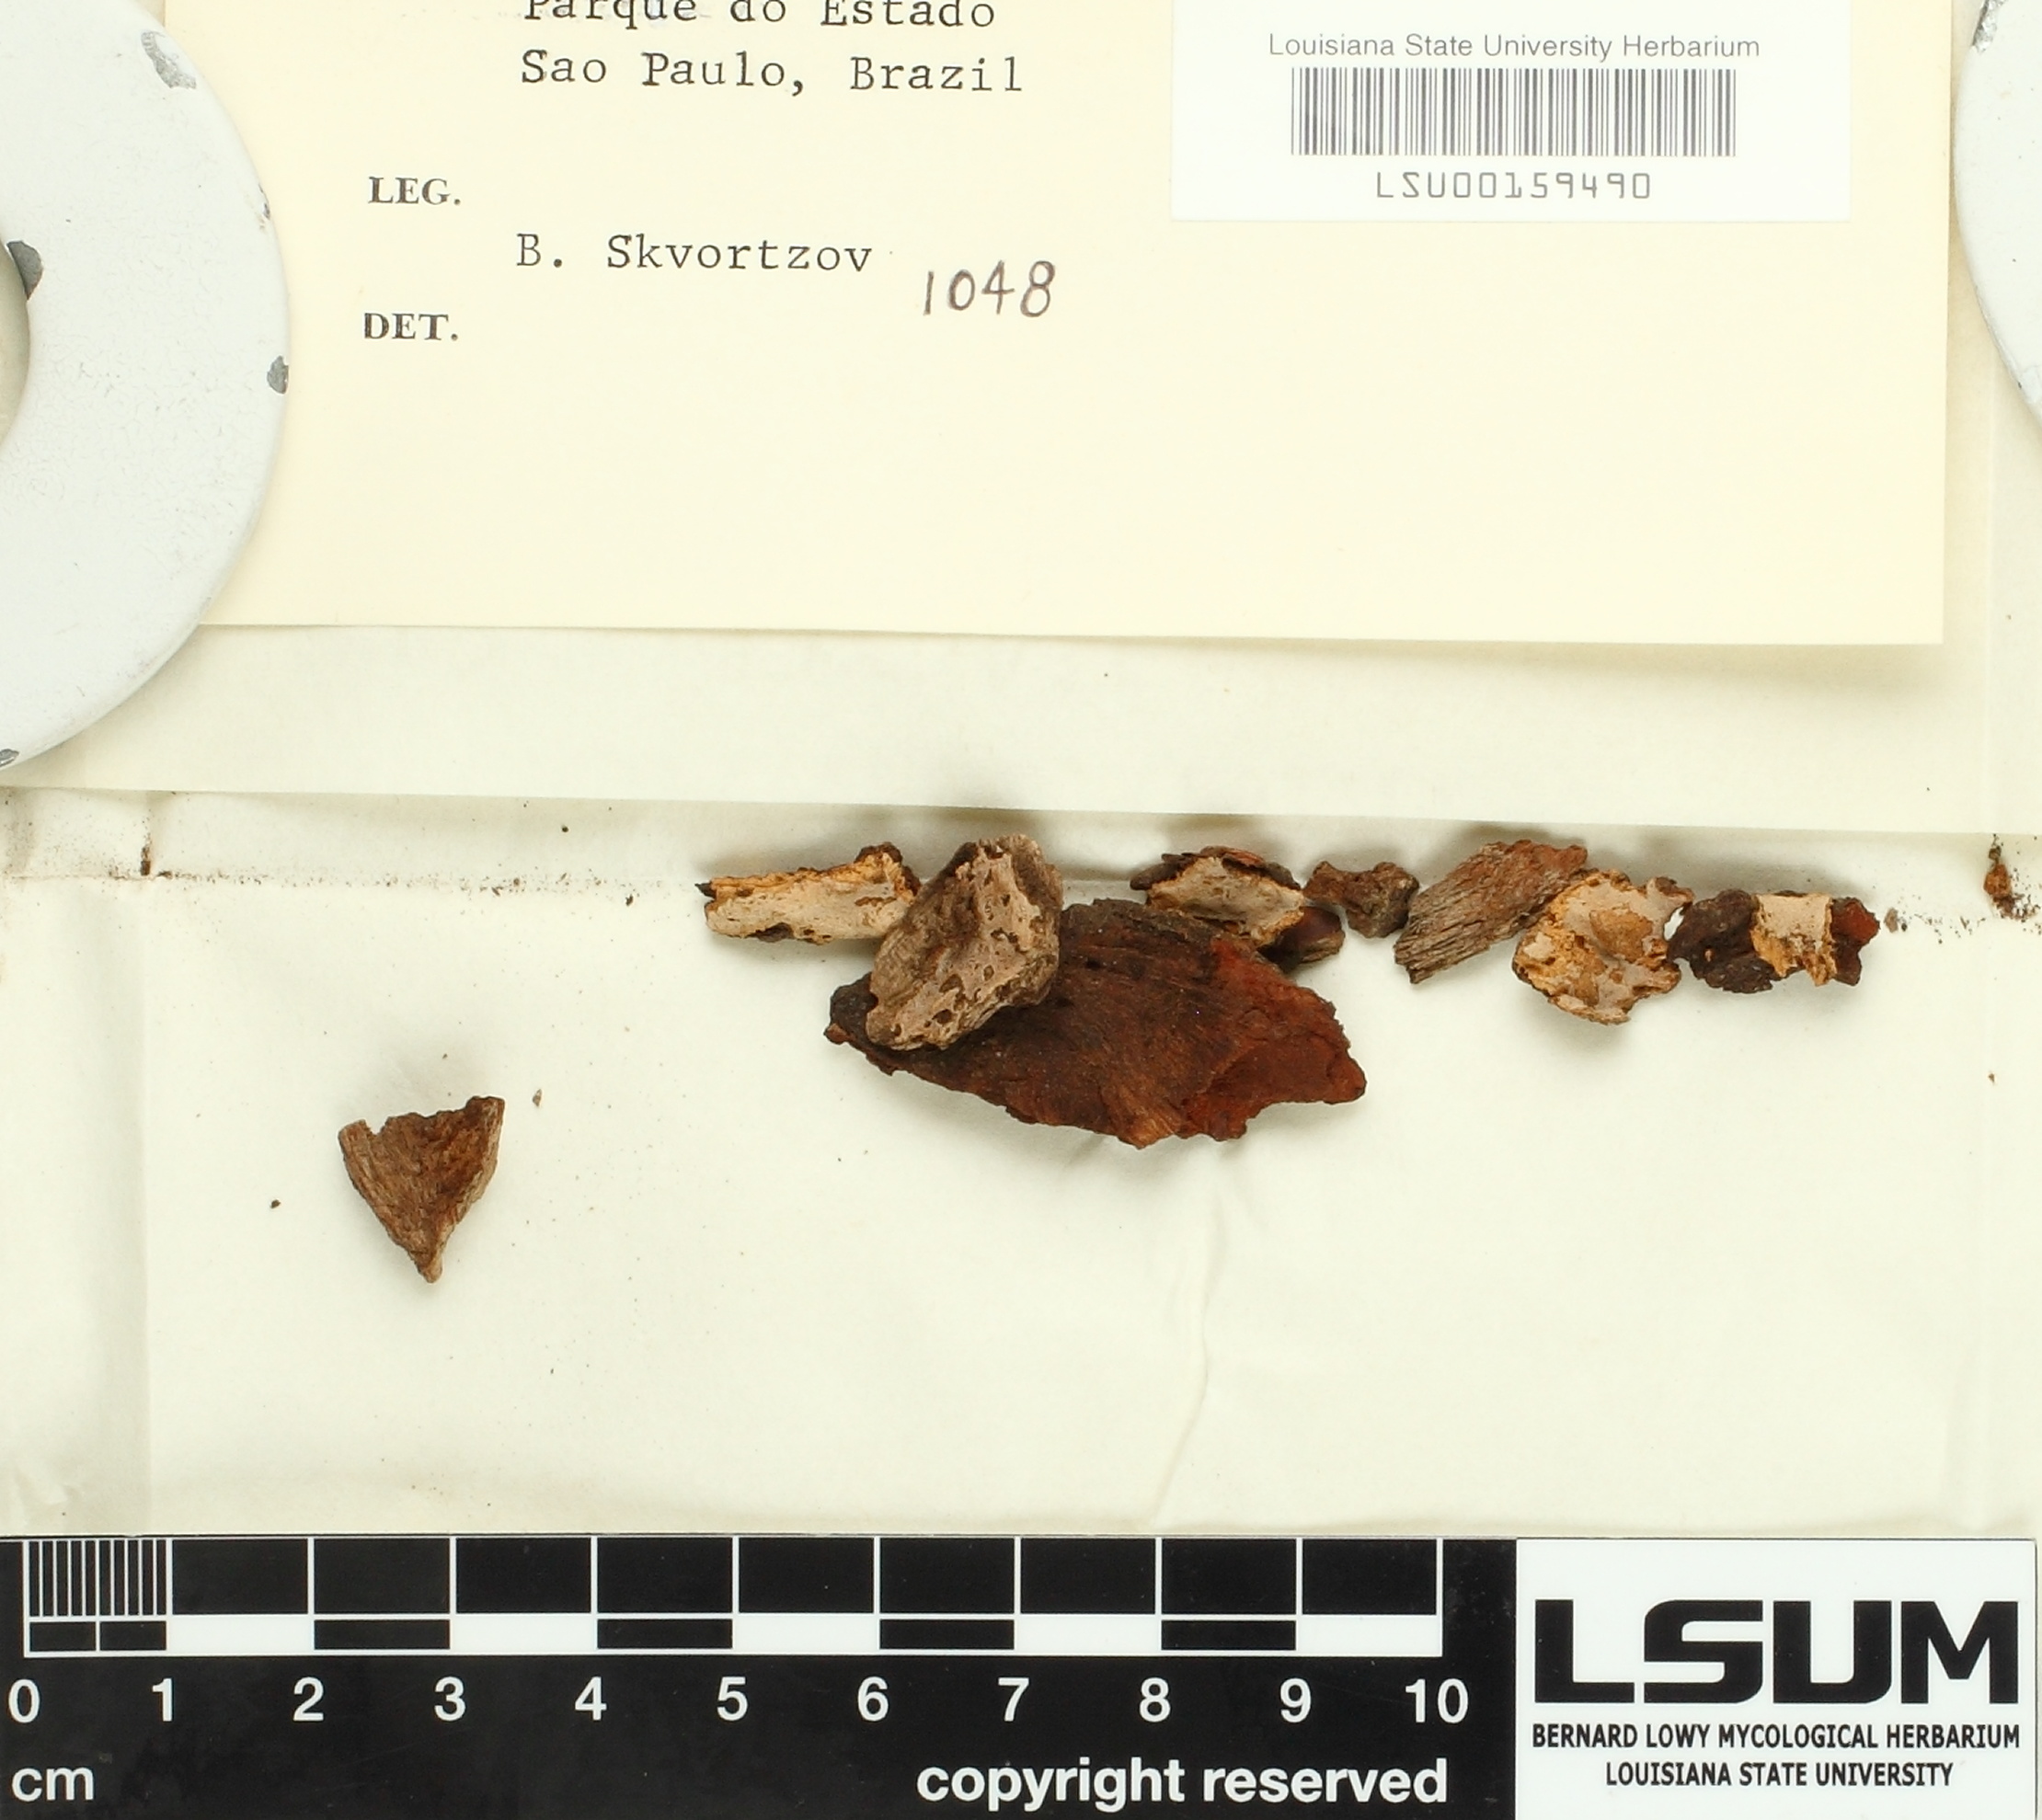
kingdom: Fungi
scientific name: Fungi
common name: Fungi
